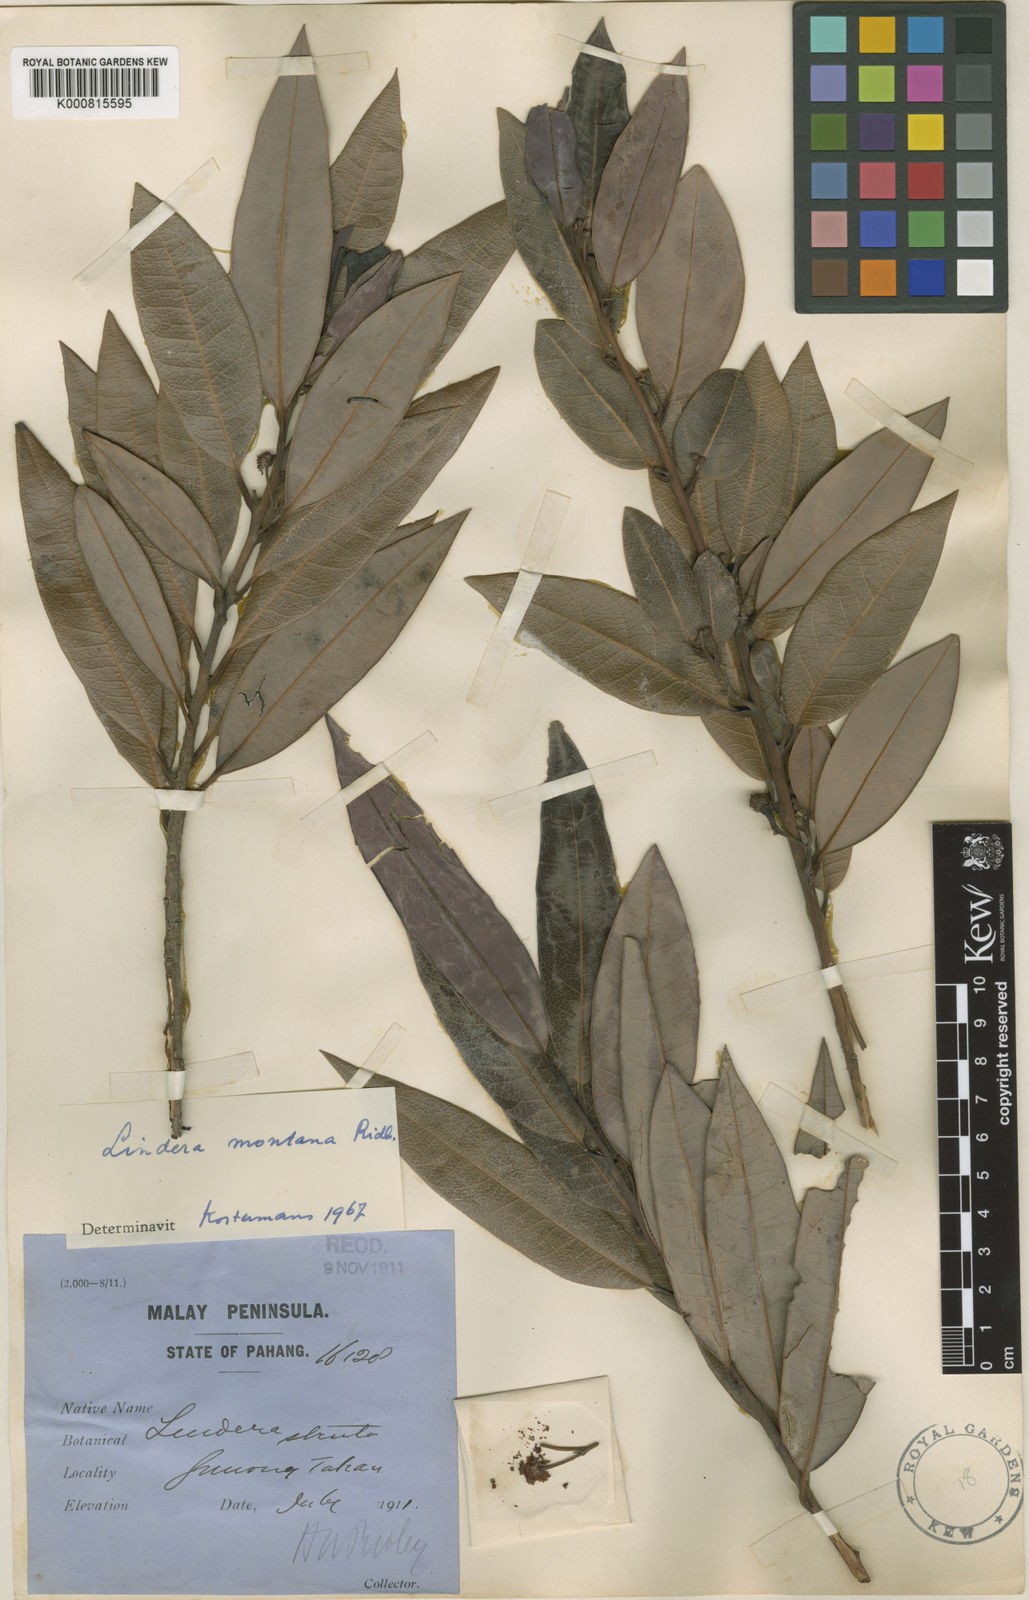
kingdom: Plantae
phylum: Tracheophyta
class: Magnoliopsida
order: Laurales
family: Lauraceae
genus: Lindera
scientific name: Lindera montana
